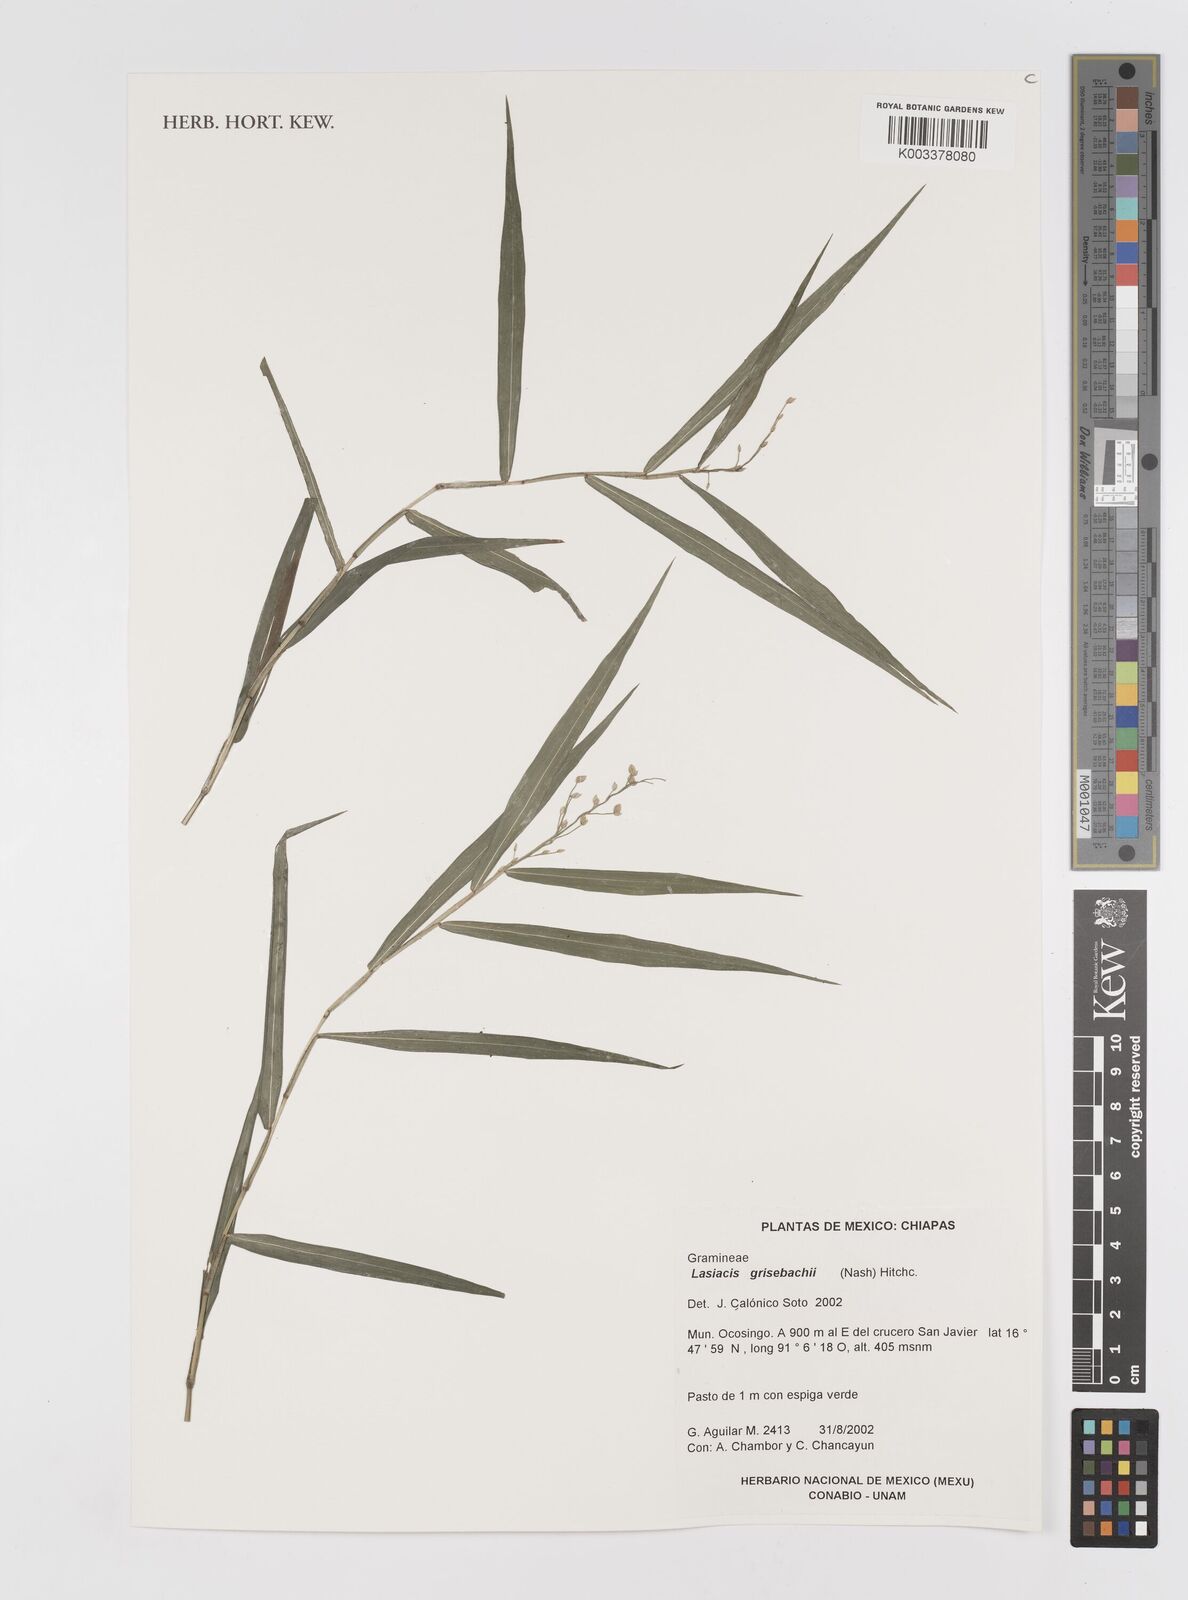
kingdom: Plantae
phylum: Tracheophyta
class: Liliopsida
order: Poales
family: Poaceae
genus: Lasiacis
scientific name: Lasiacis grisebachii
